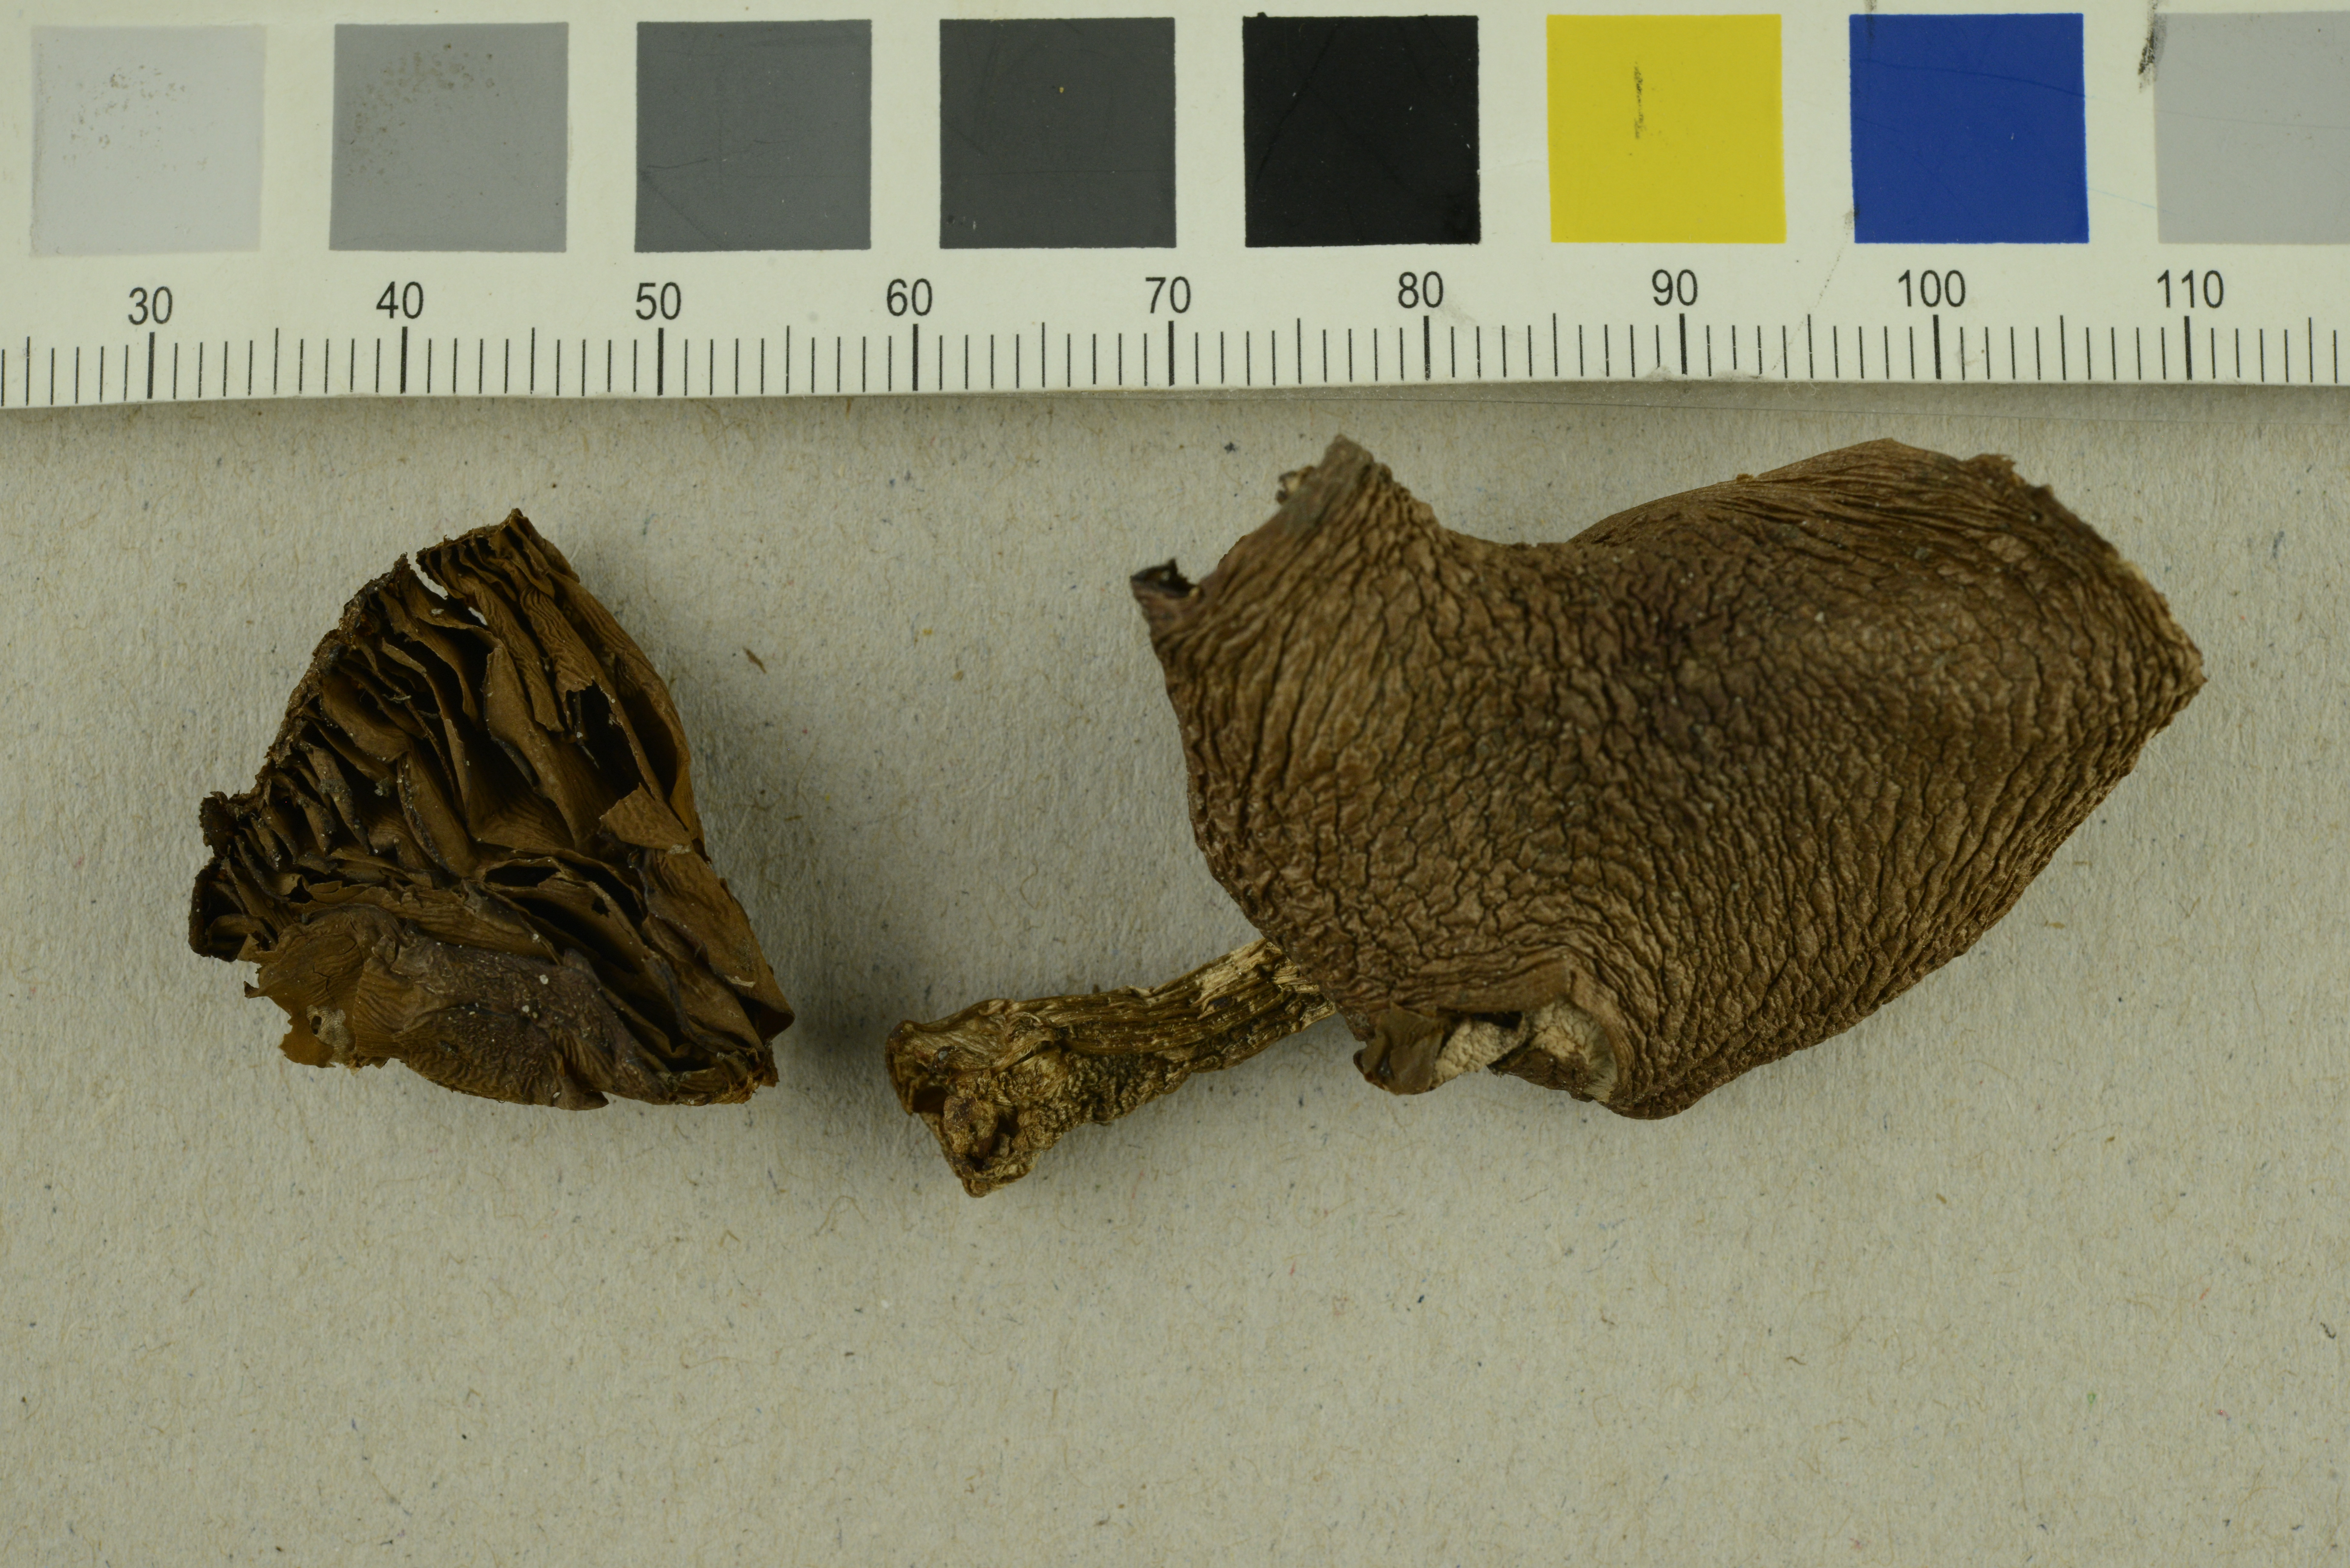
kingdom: Fungi
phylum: Basidiomycota
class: Agaricomycetes
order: Agaricales
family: Cortinariaceae
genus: Cortinarius
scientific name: Cortinarius bivelus
